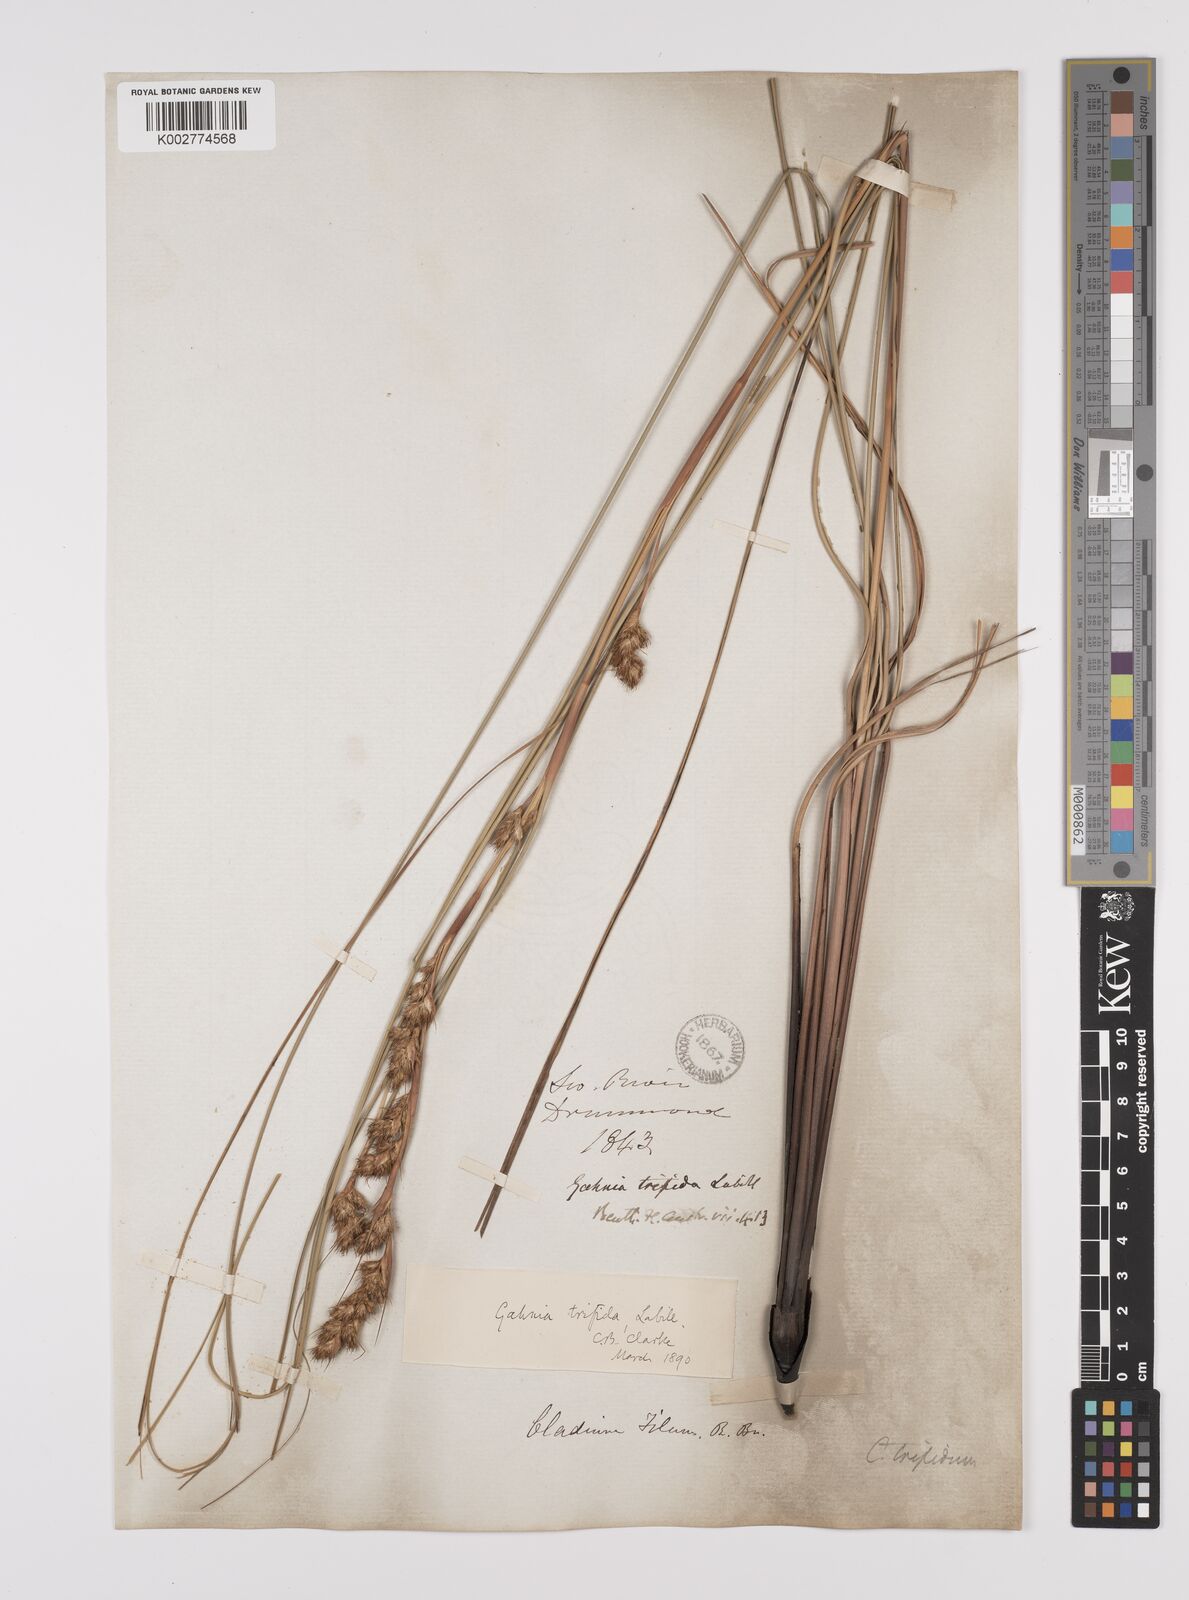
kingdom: Plantae
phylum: Tracheophyta
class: Liliopsida
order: Poales
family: Cyperaceae
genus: Gahnia
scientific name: Gahnia trifida
